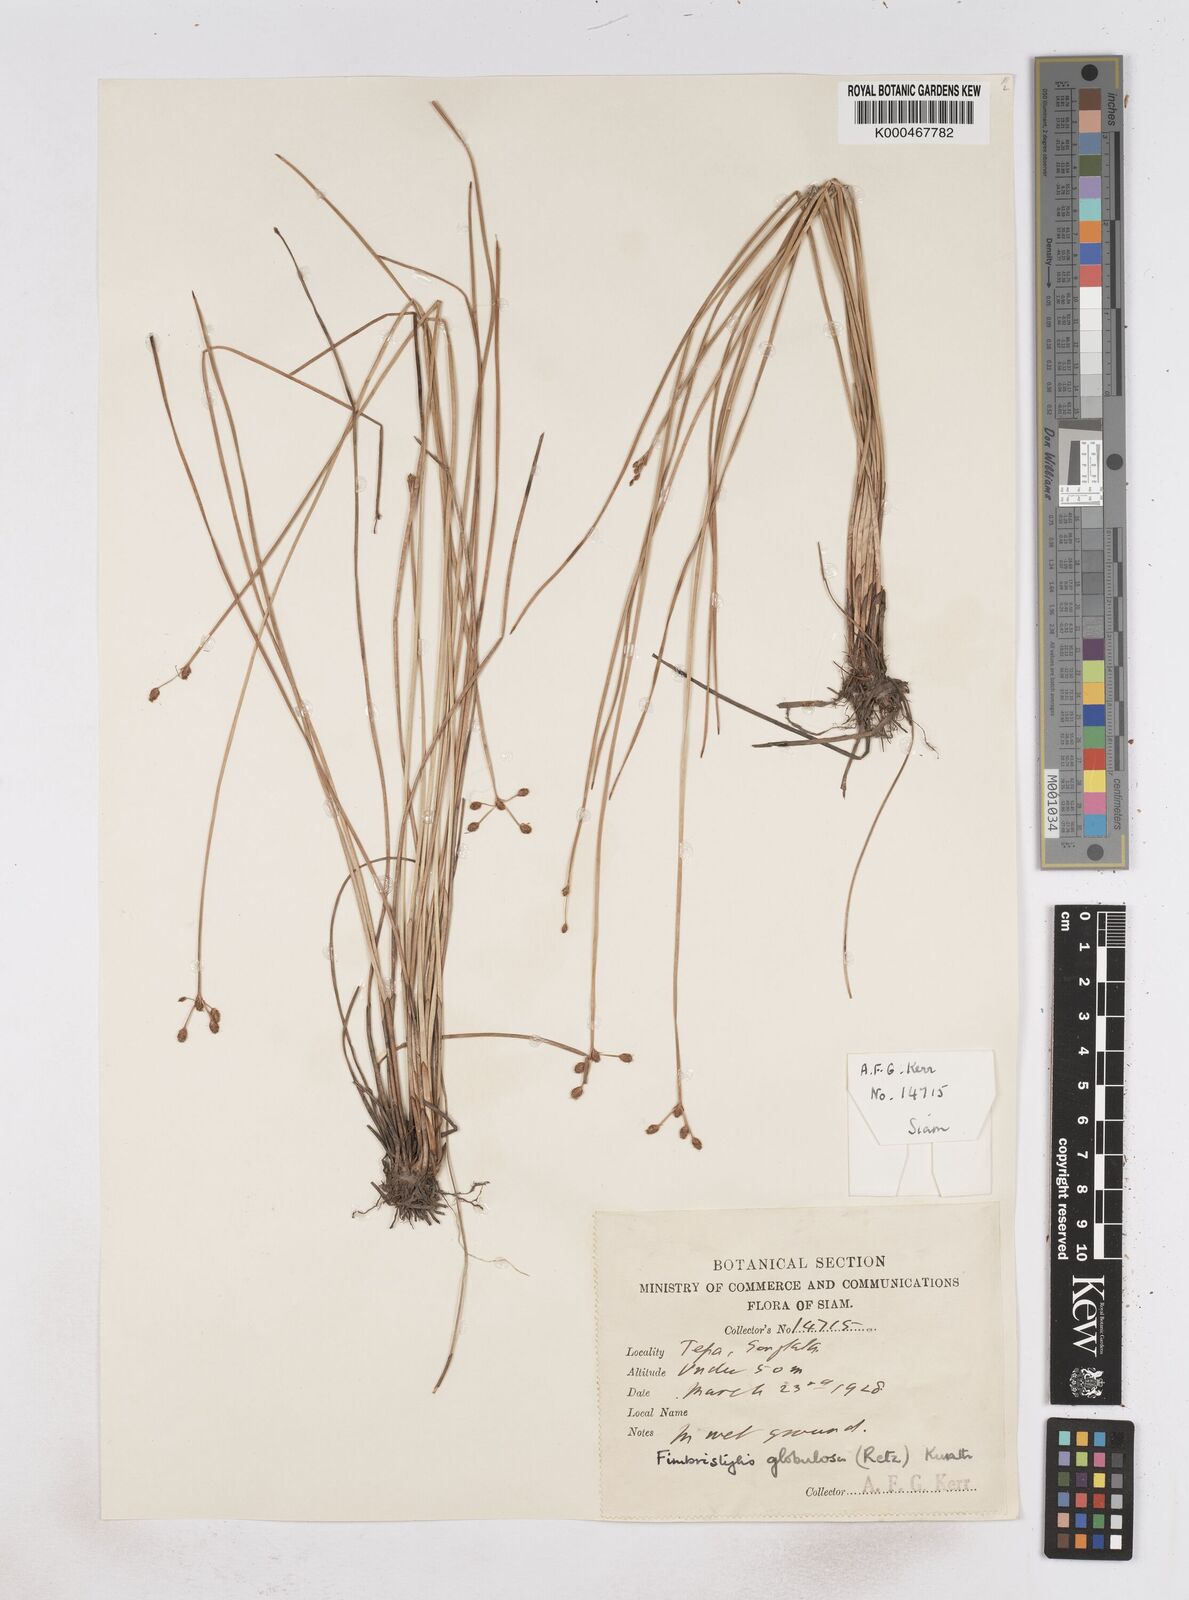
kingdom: Plantae
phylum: Tracheophyta
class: Liliopsida
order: Poales
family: Cyperaceae
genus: Fimbristylis
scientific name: Fimbristylis umbellaris
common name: Globular fimbristylis
